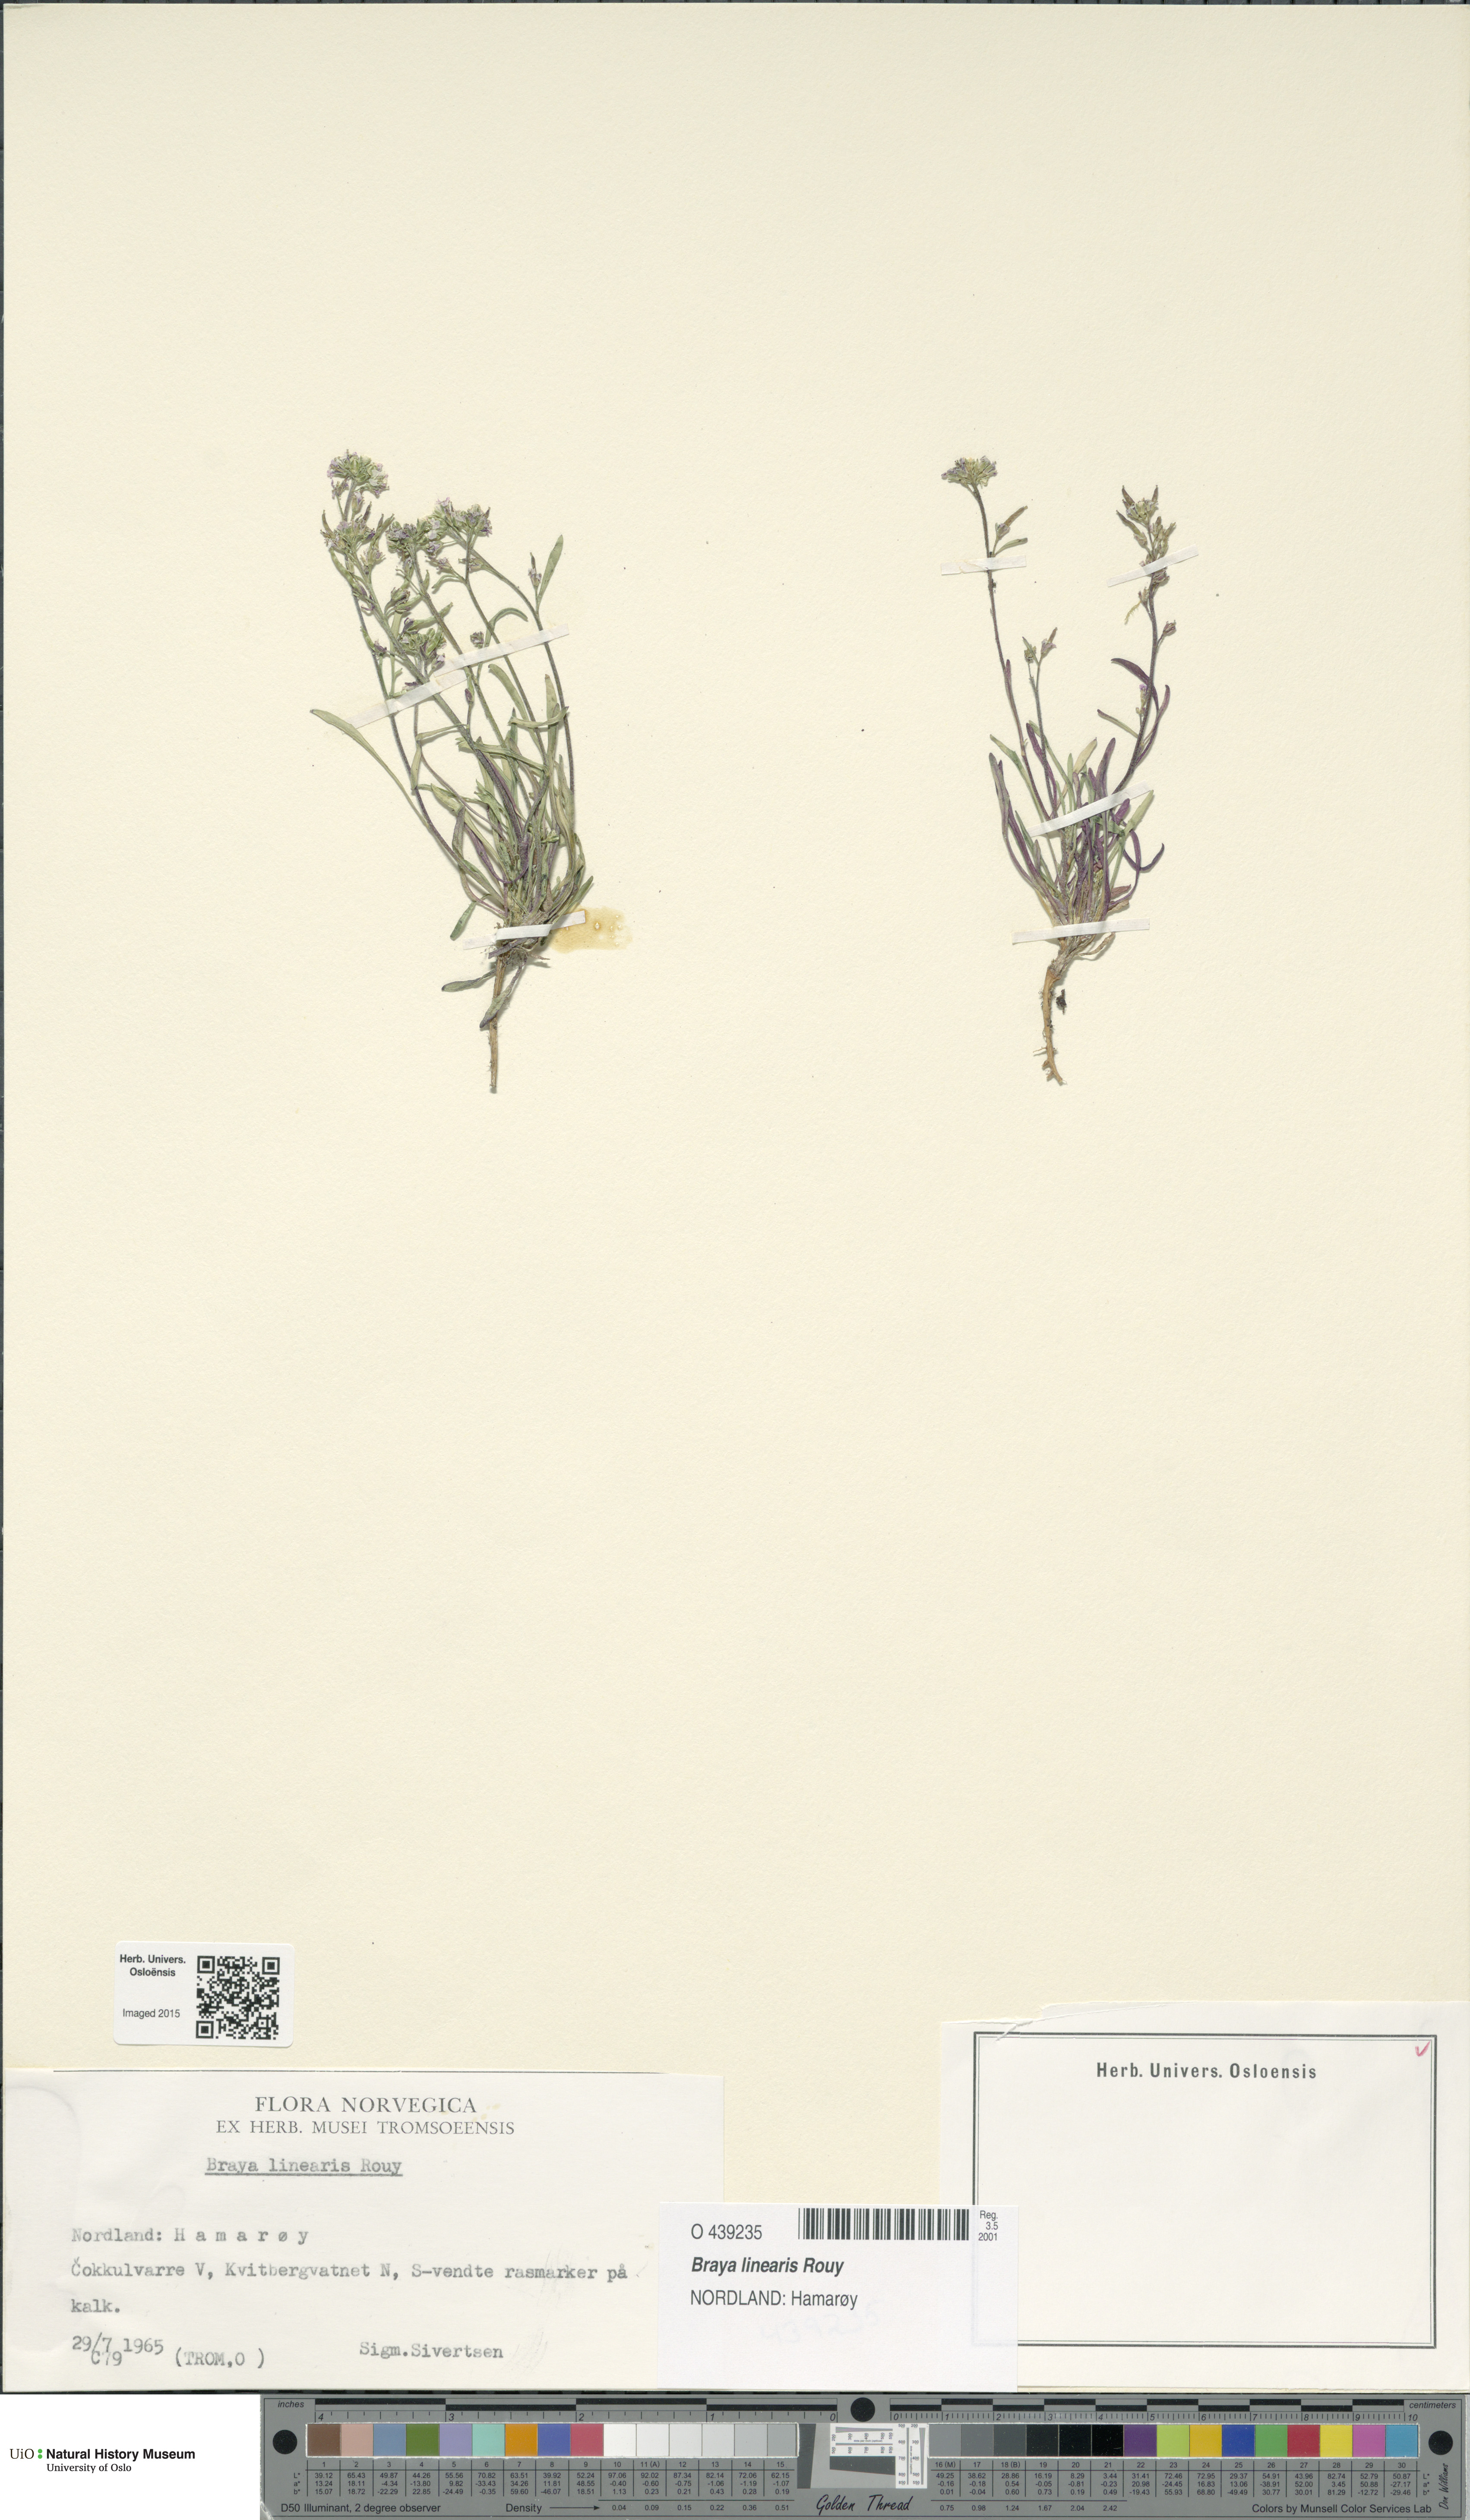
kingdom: Plantae
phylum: Tracheophyta
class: Magnoliopsida
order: Brassicales
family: Brassicaceae
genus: Braya
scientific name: Braya linearis
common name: Narrow-fruit braya
